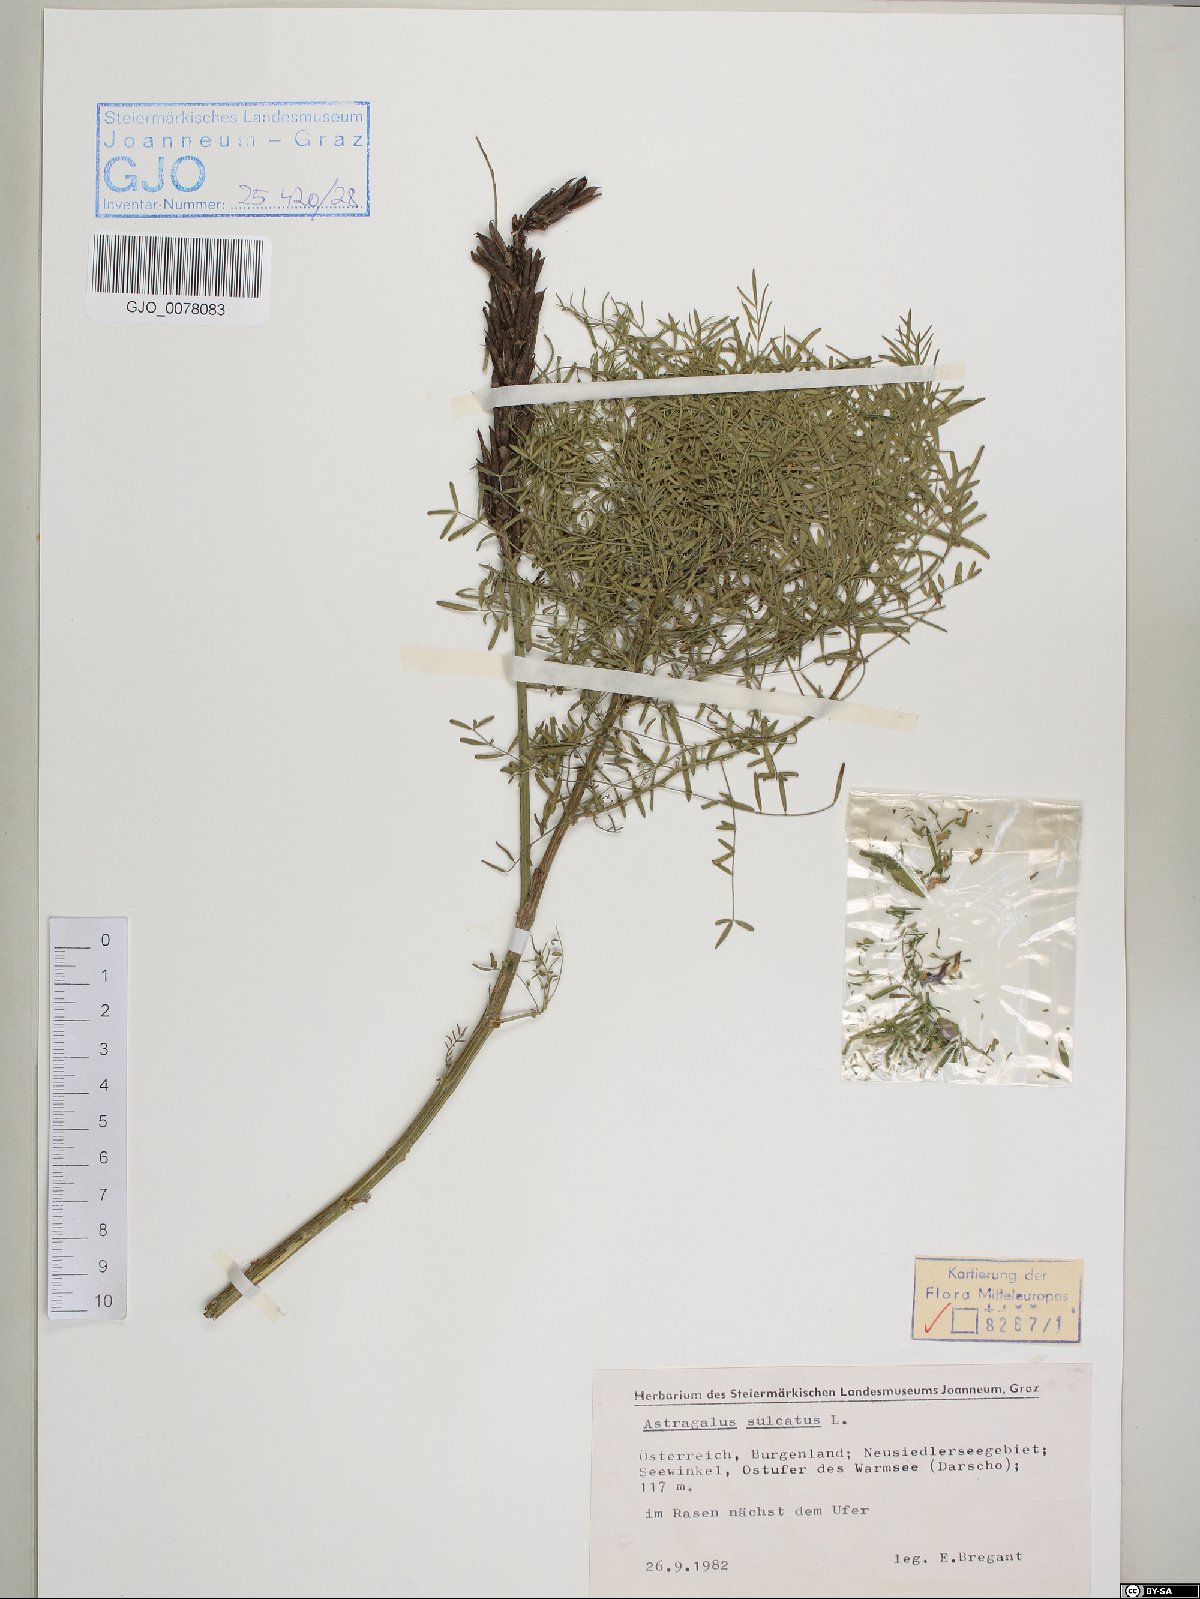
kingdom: Plantae
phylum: Tracheophyta
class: Magnoliopsida
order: Fabales
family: Fabaceae
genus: Astragalus
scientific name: Astragalus sulcatus
